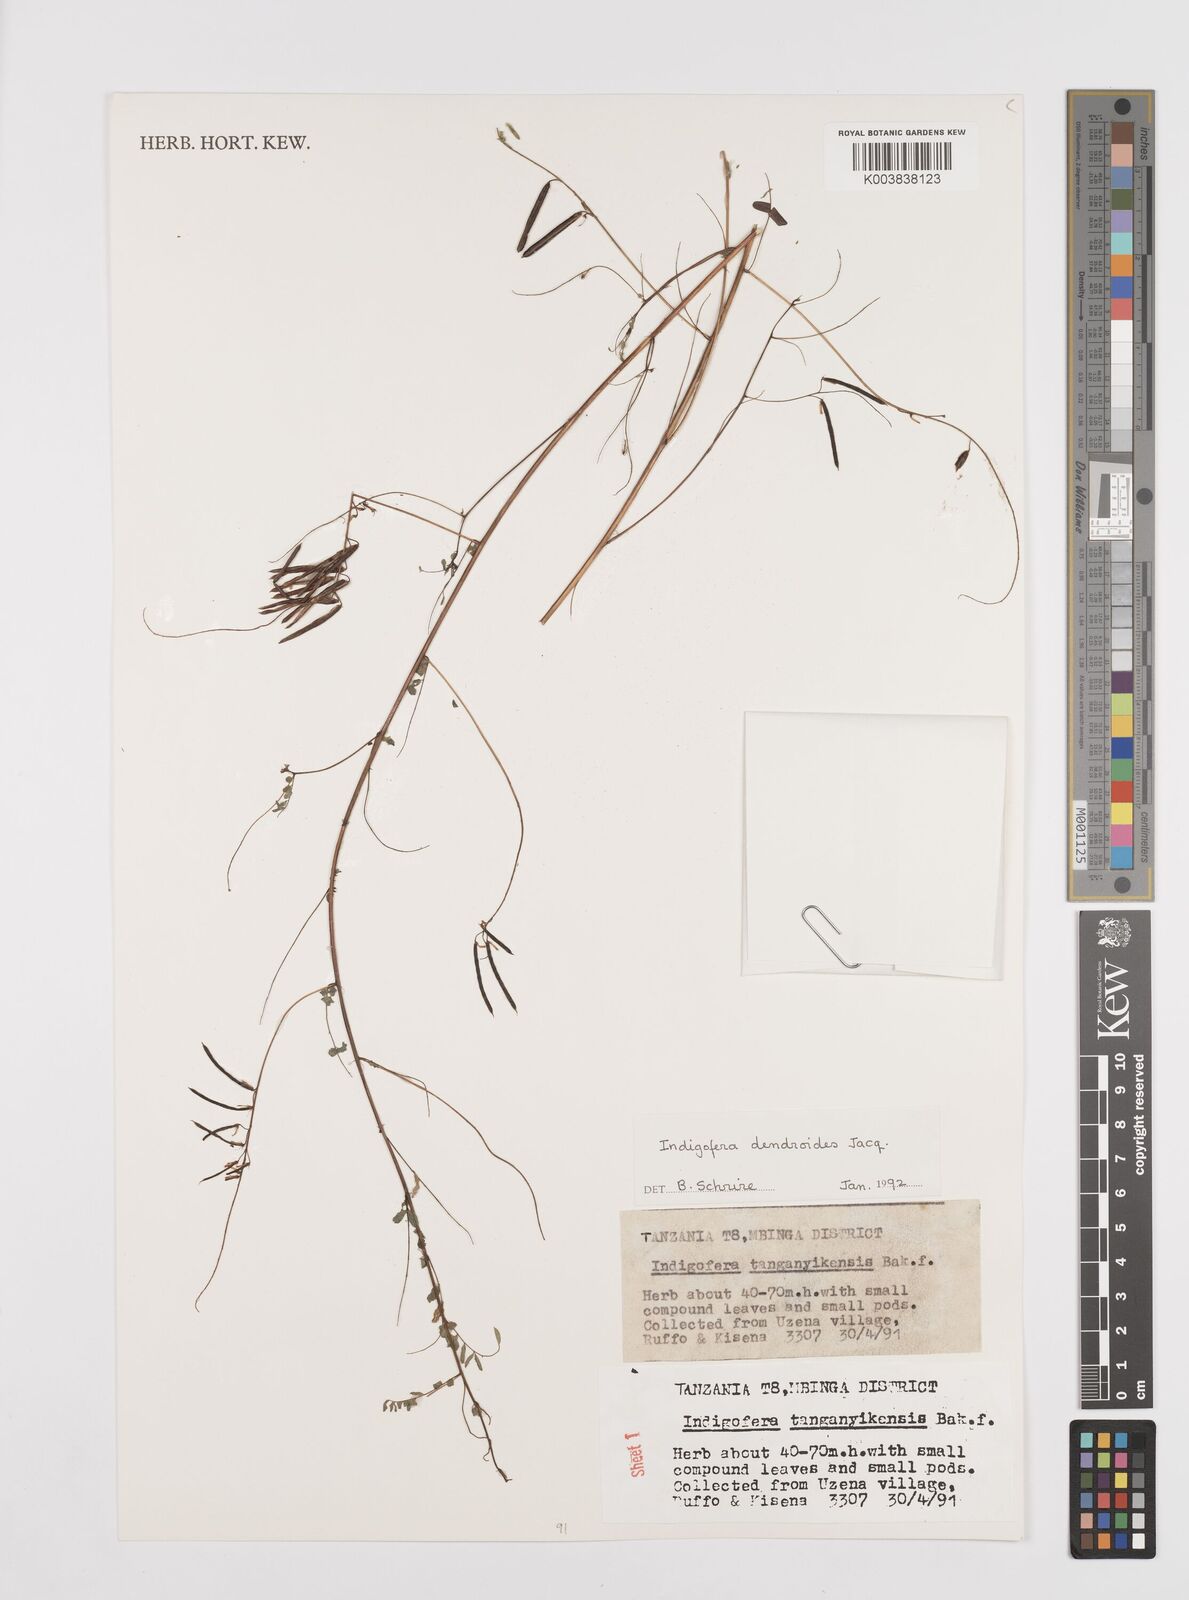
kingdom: Plantae
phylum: Tracheophyta
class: Magnoliopsida
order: Fabales
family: Fabaceae
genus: Indigofera
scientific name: Indigofera dendroides
